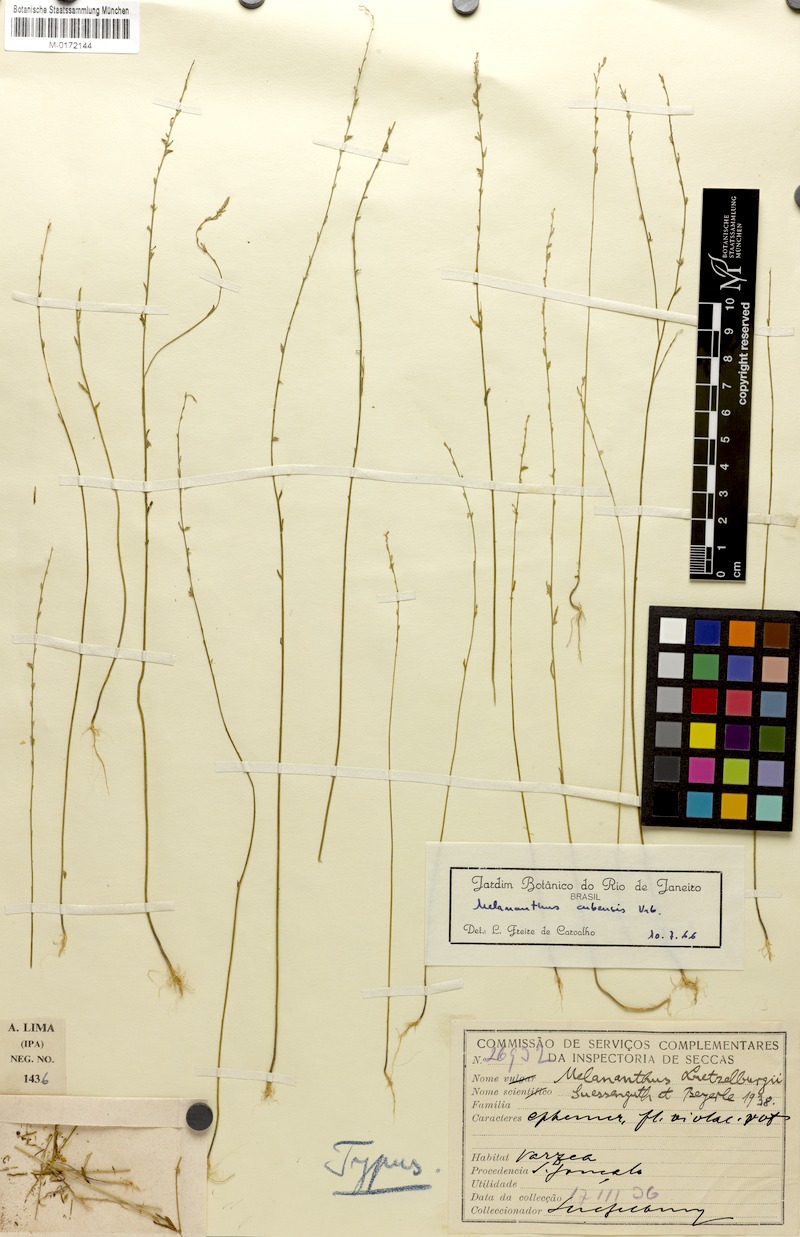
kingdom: Plantae
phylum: Tracheophyta
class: Magnoliopsida
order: Solanales
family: Solanaceae
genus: Melananthus
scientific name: Melananthus cubensis
